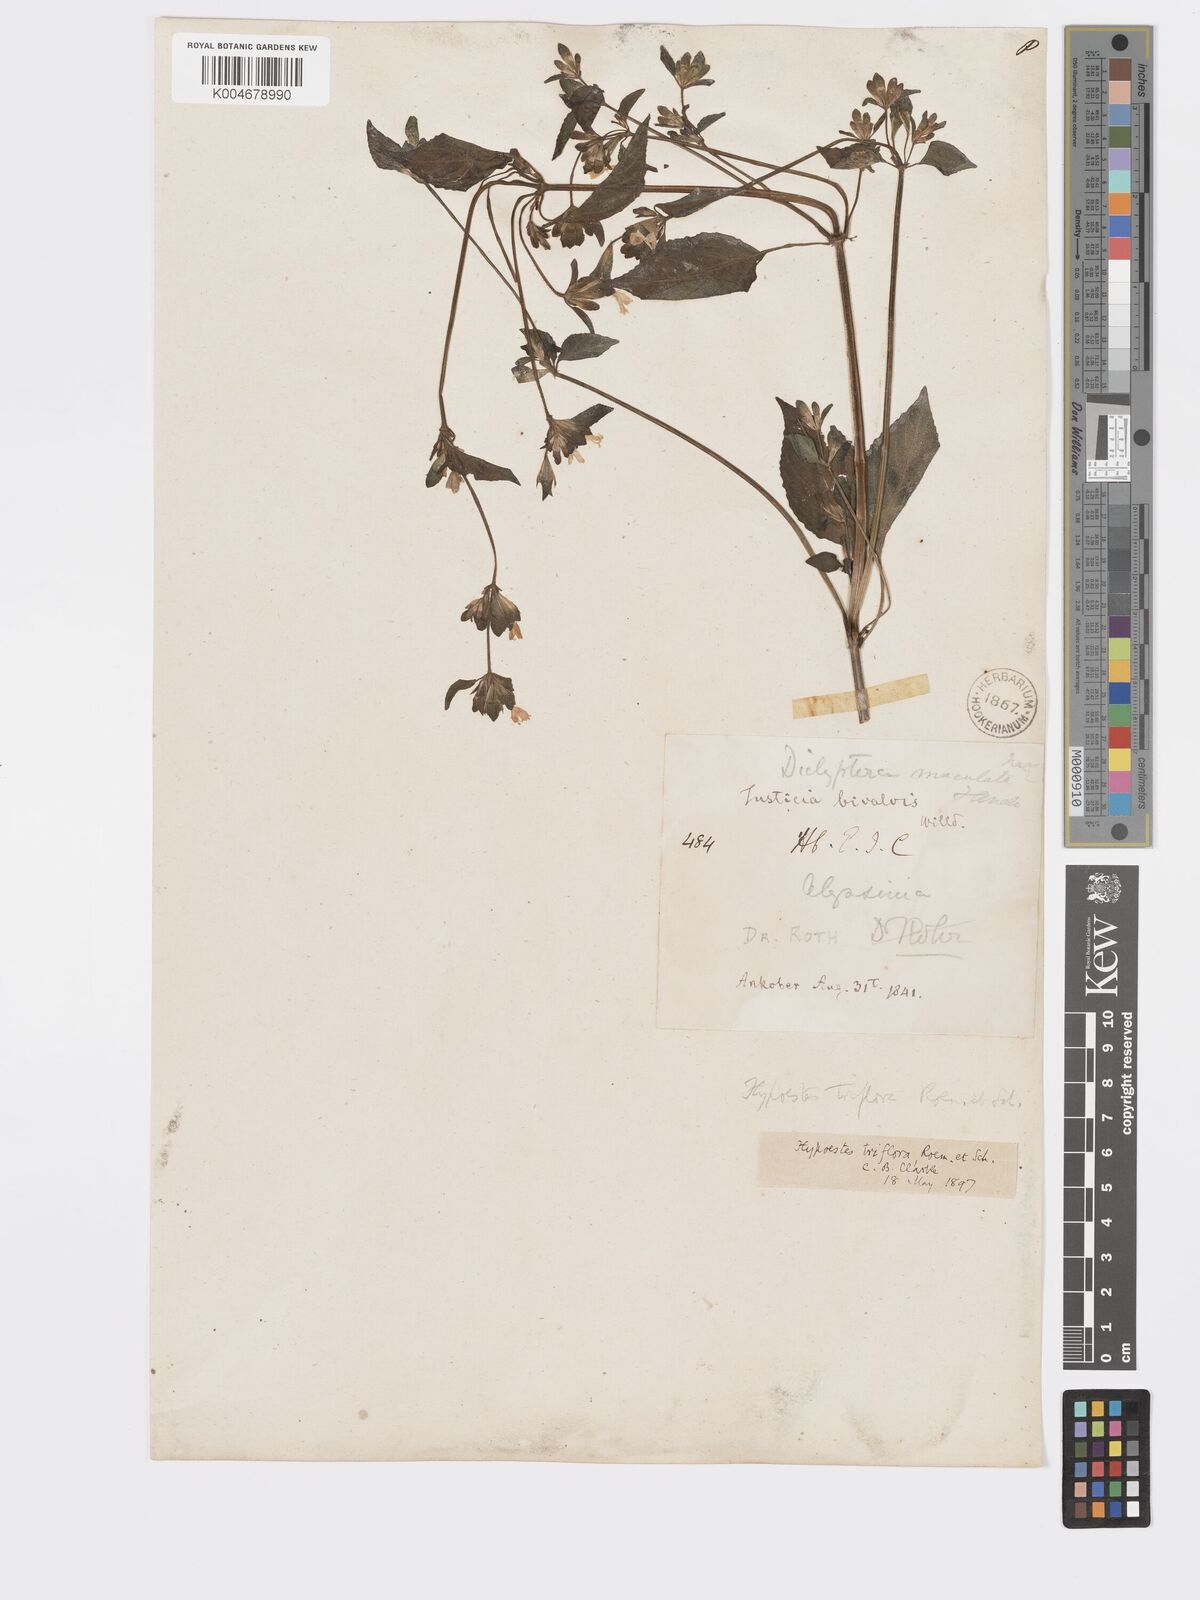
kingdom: Plantae
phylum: Tracheophyta
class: Magnoliopsida
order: Lamiales
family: Acanthaceae
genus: Hypoestes
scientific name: Hypoestes triflora
